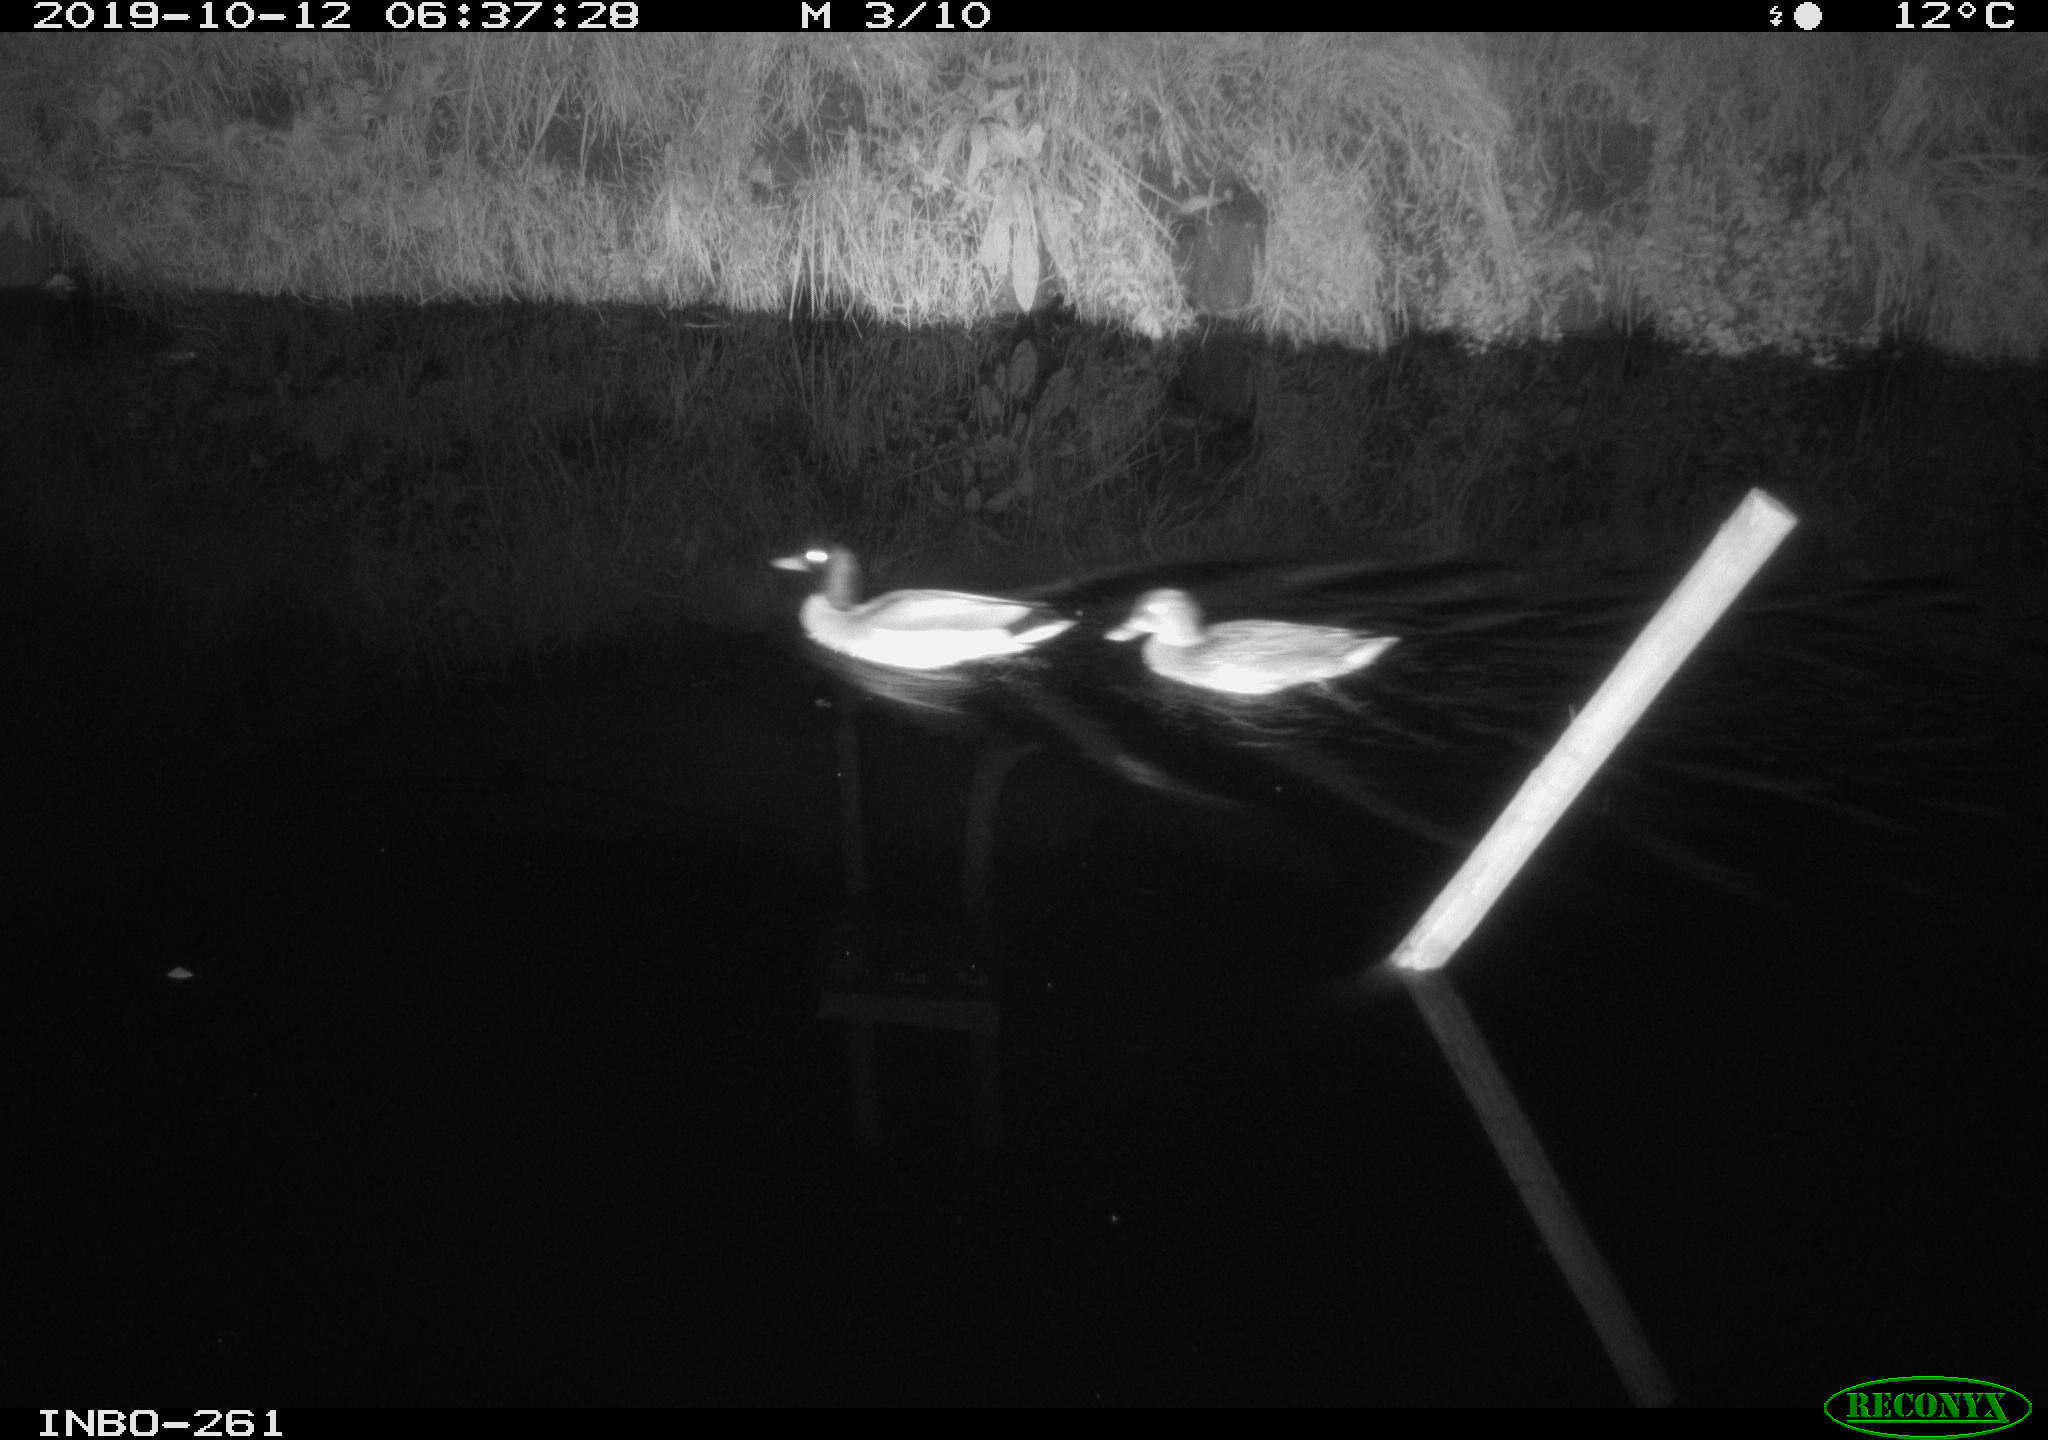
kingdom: Animalia
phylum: Chordata
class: Aves
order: Anseriformes
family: Anatidae
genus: Anas
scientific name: Anas platyrhynchos
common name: Mallard
